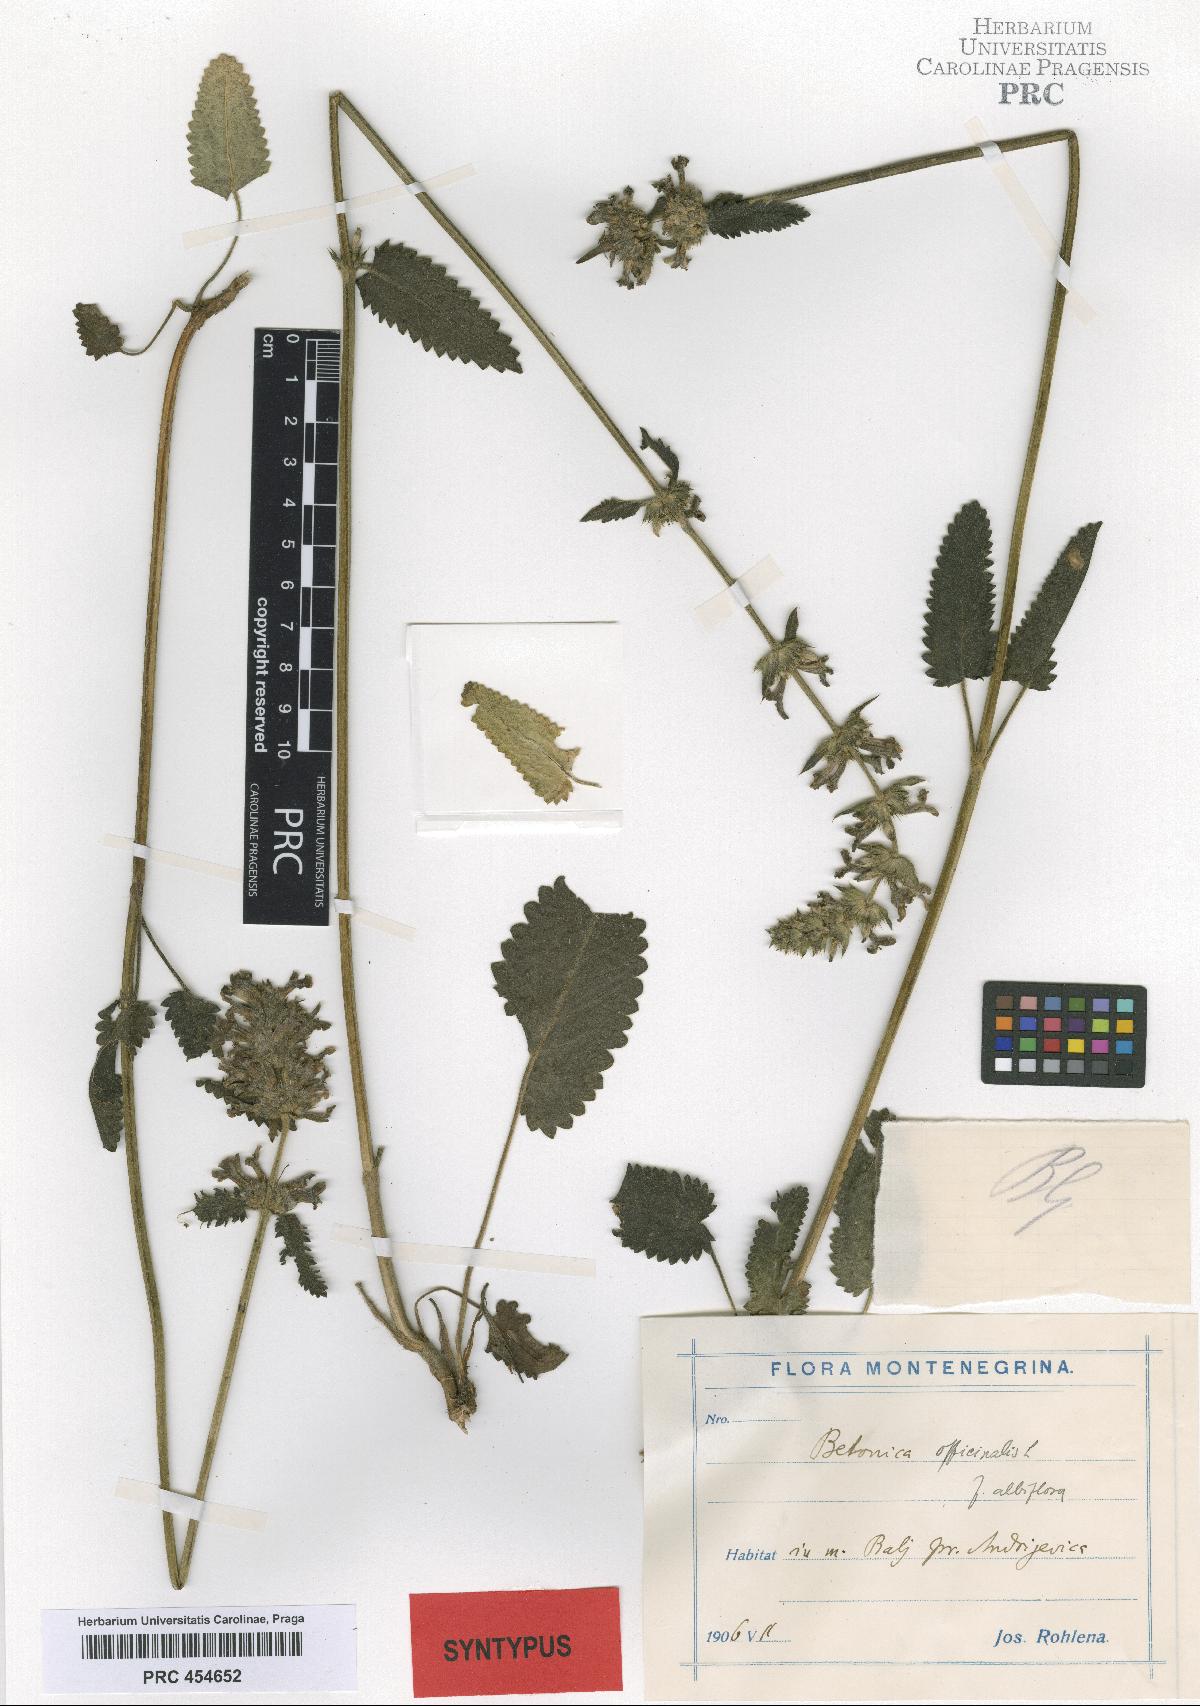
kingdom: Plantae
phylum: Tracheophyta
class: Magnoliopsida
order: Lamiales
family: Lamiaceae
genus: Betonica
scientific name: Betonica officinalis
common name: Bishop's-wort
